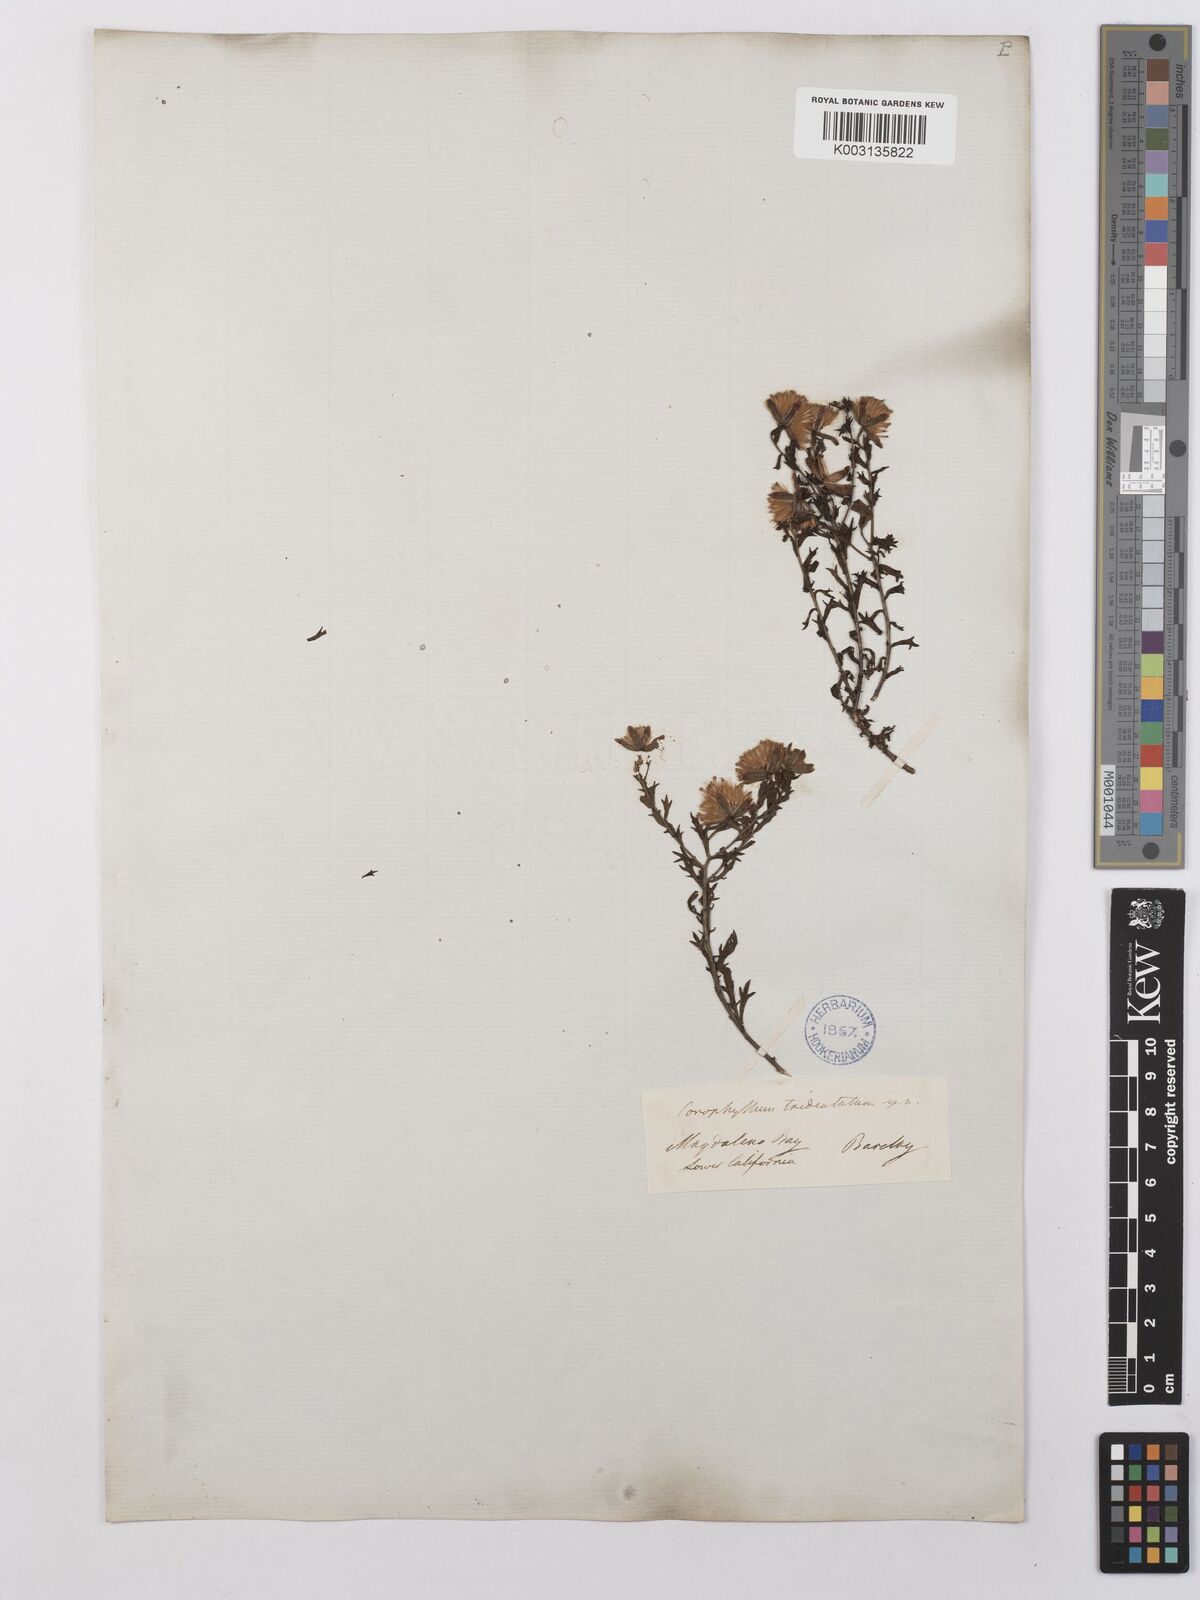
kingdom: Plantae
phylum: Tracheophyta
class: Magnoliopsida
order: Asterales
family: Asteraceae
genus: Bajacalia
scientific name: Bajacalia tridentata
